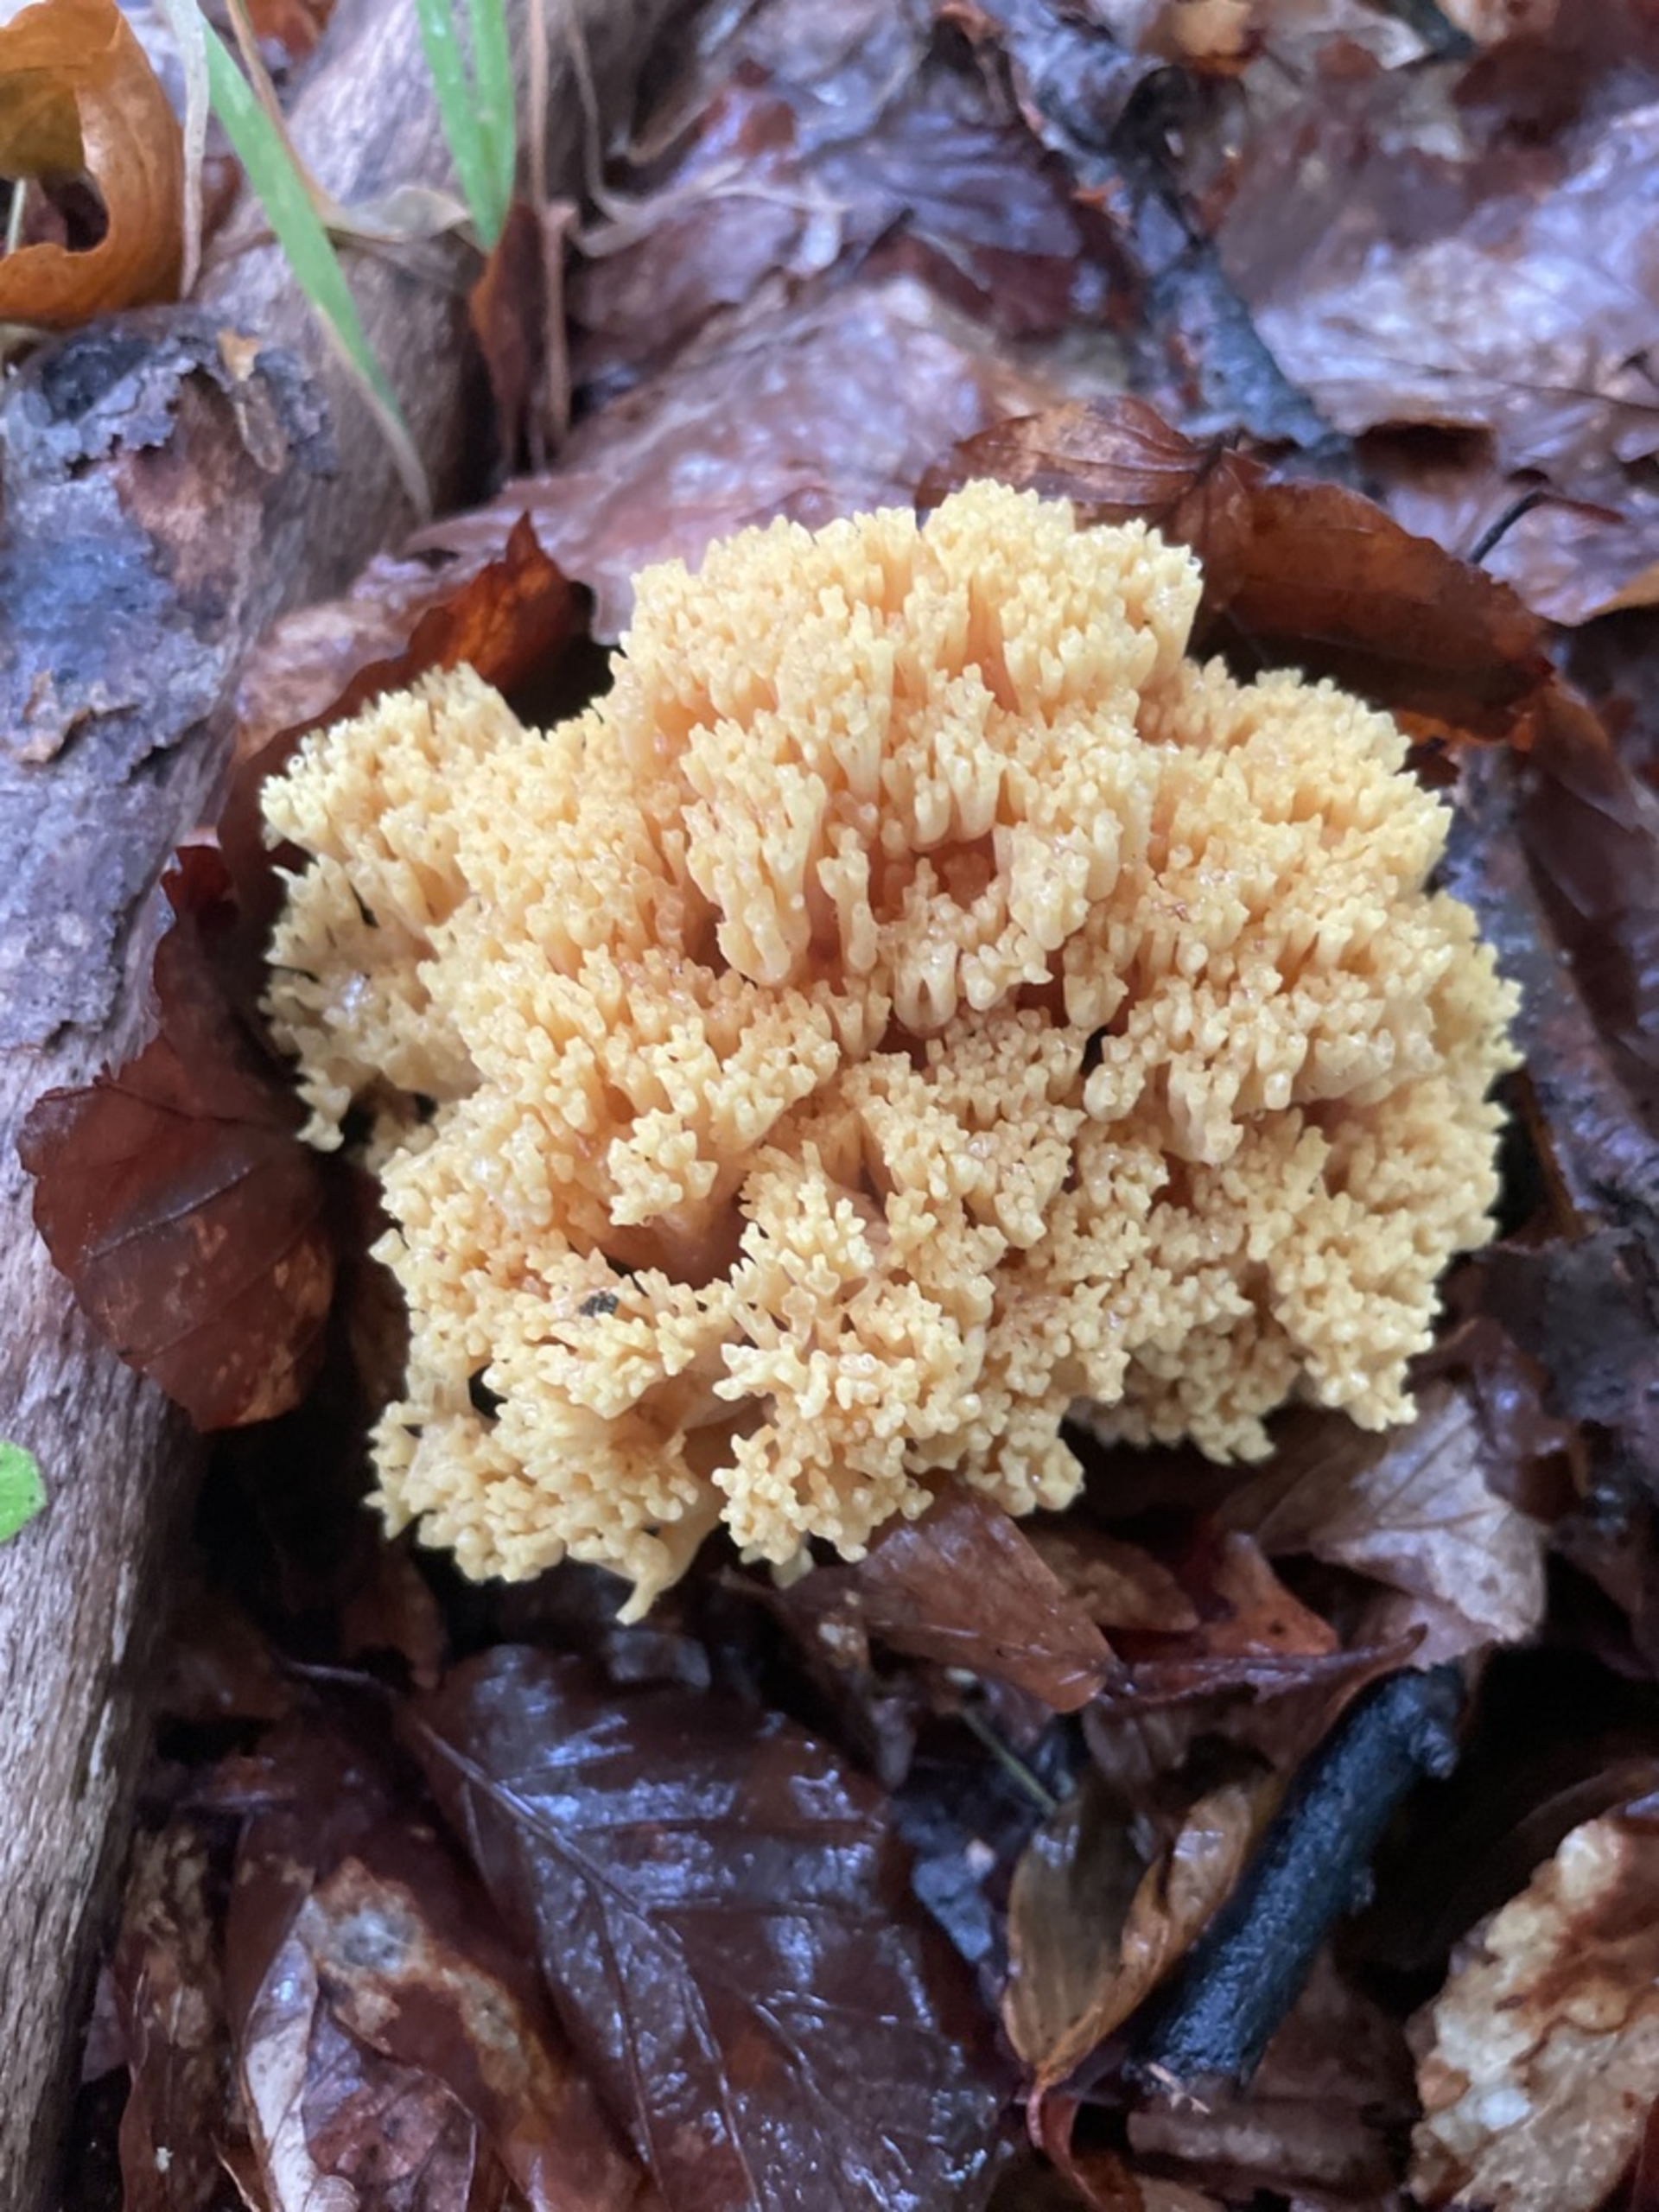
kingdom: Fungi
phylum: Basidiomycota
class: Agaricomycetes
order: Gomphales
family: Gomphaceae
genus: Ramaria
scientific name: Ramaria
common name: Koralsvamp
